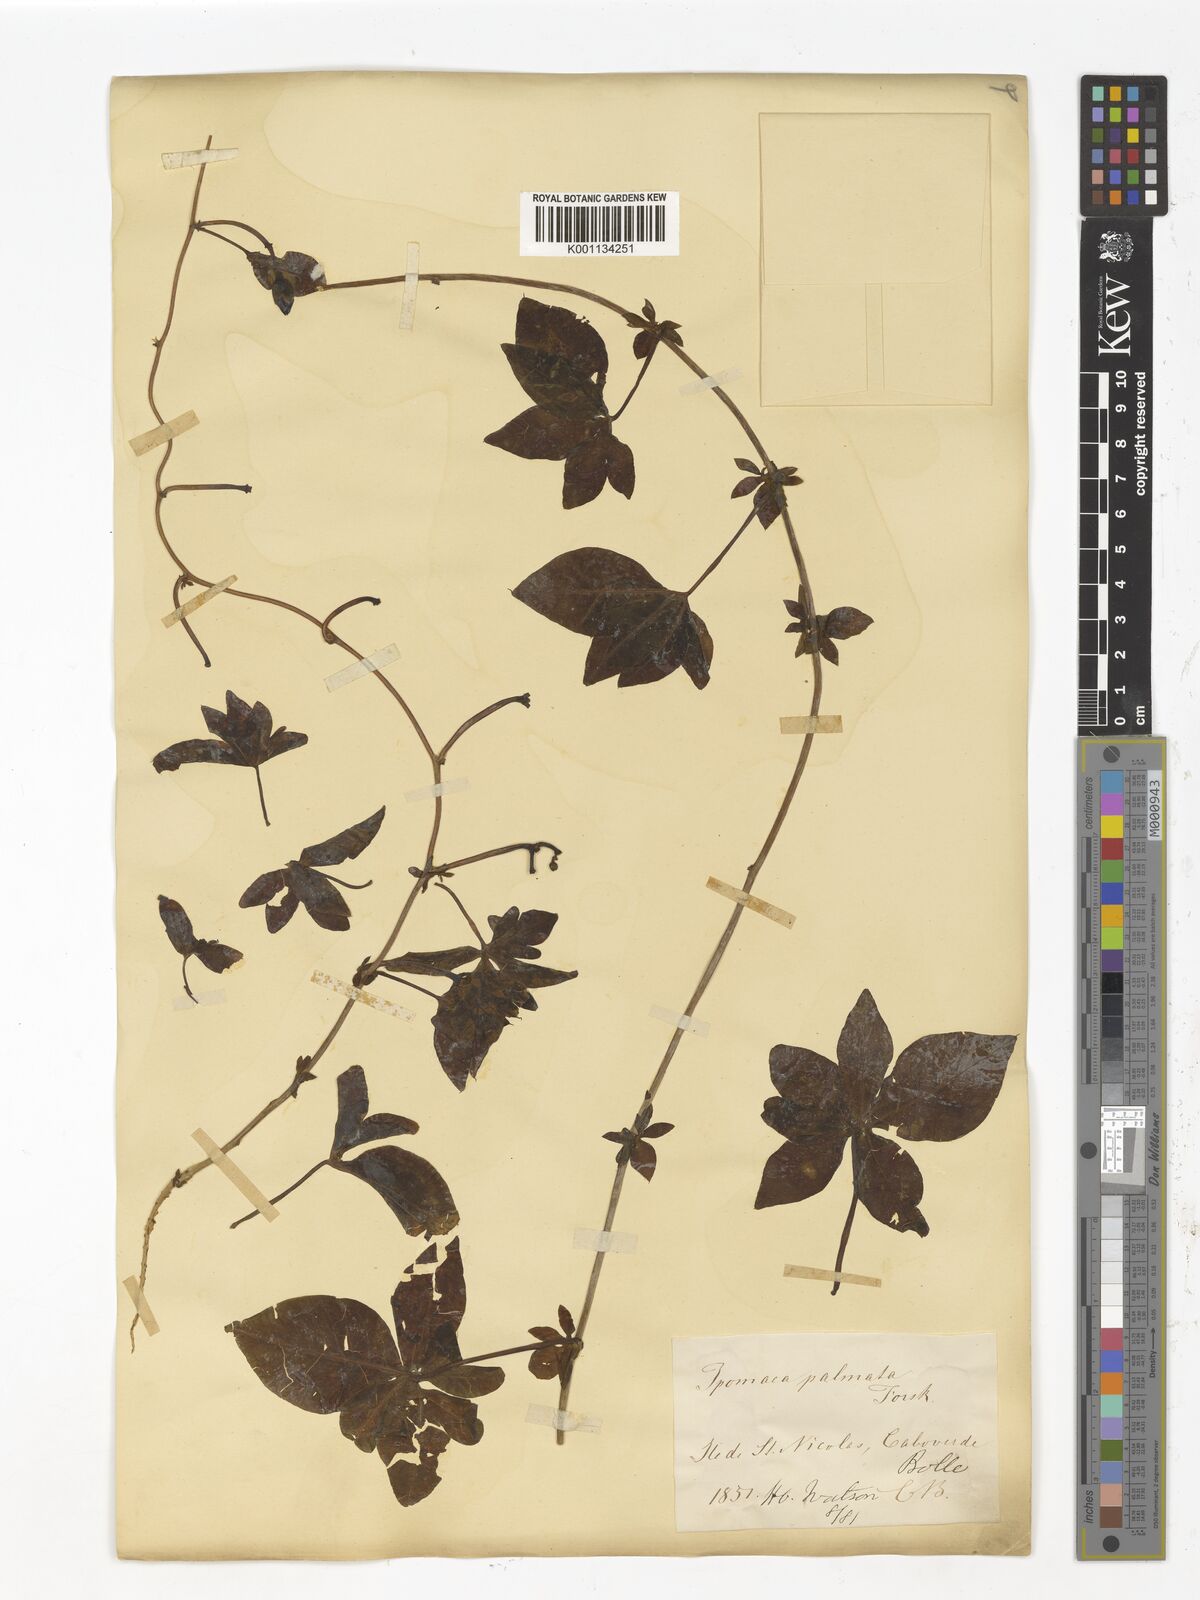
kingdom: Plantae
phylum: Tracheophyta
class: Magnoliopsida
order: Solanales
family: Convolvulaceae
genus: Ipomoea
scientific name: Ipomoea cairica
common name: Mile a minute vine
